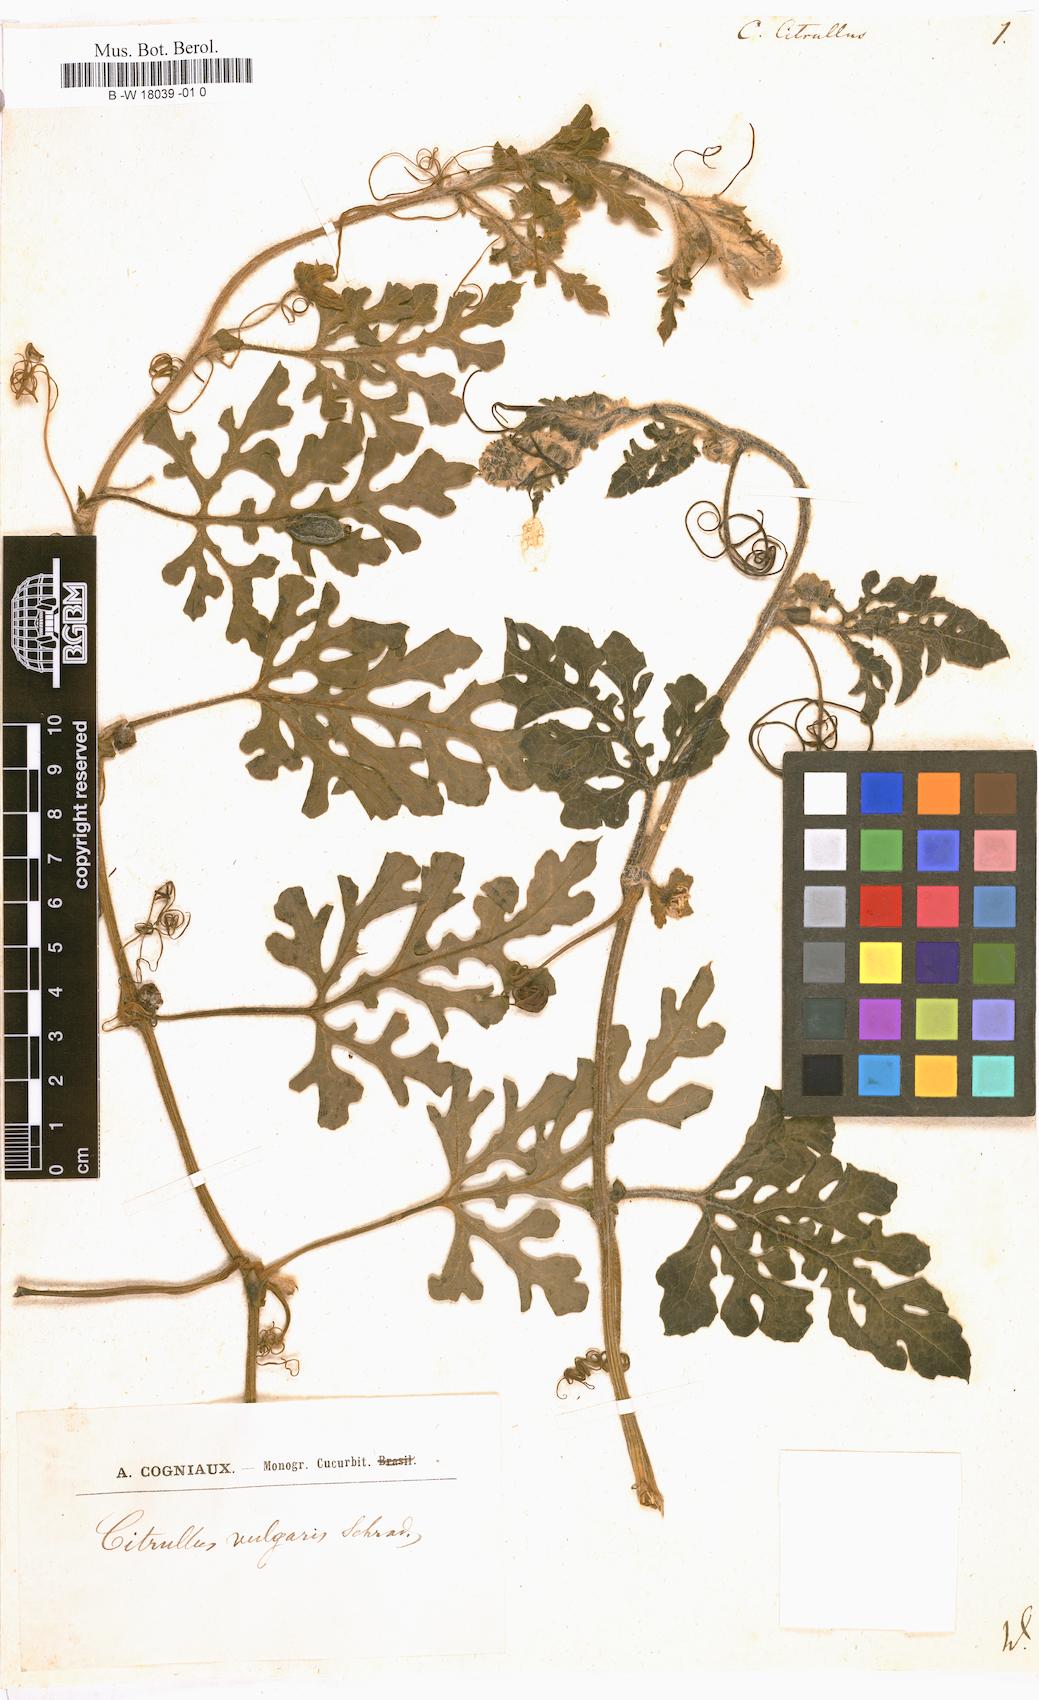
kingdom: Plantae
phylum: Tracheophyta
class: Magnoliopsida
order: Cucurbitales
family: Cucurbitaceae
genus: Citrullus
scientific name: Citrullus lanatus
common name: Watermelon
